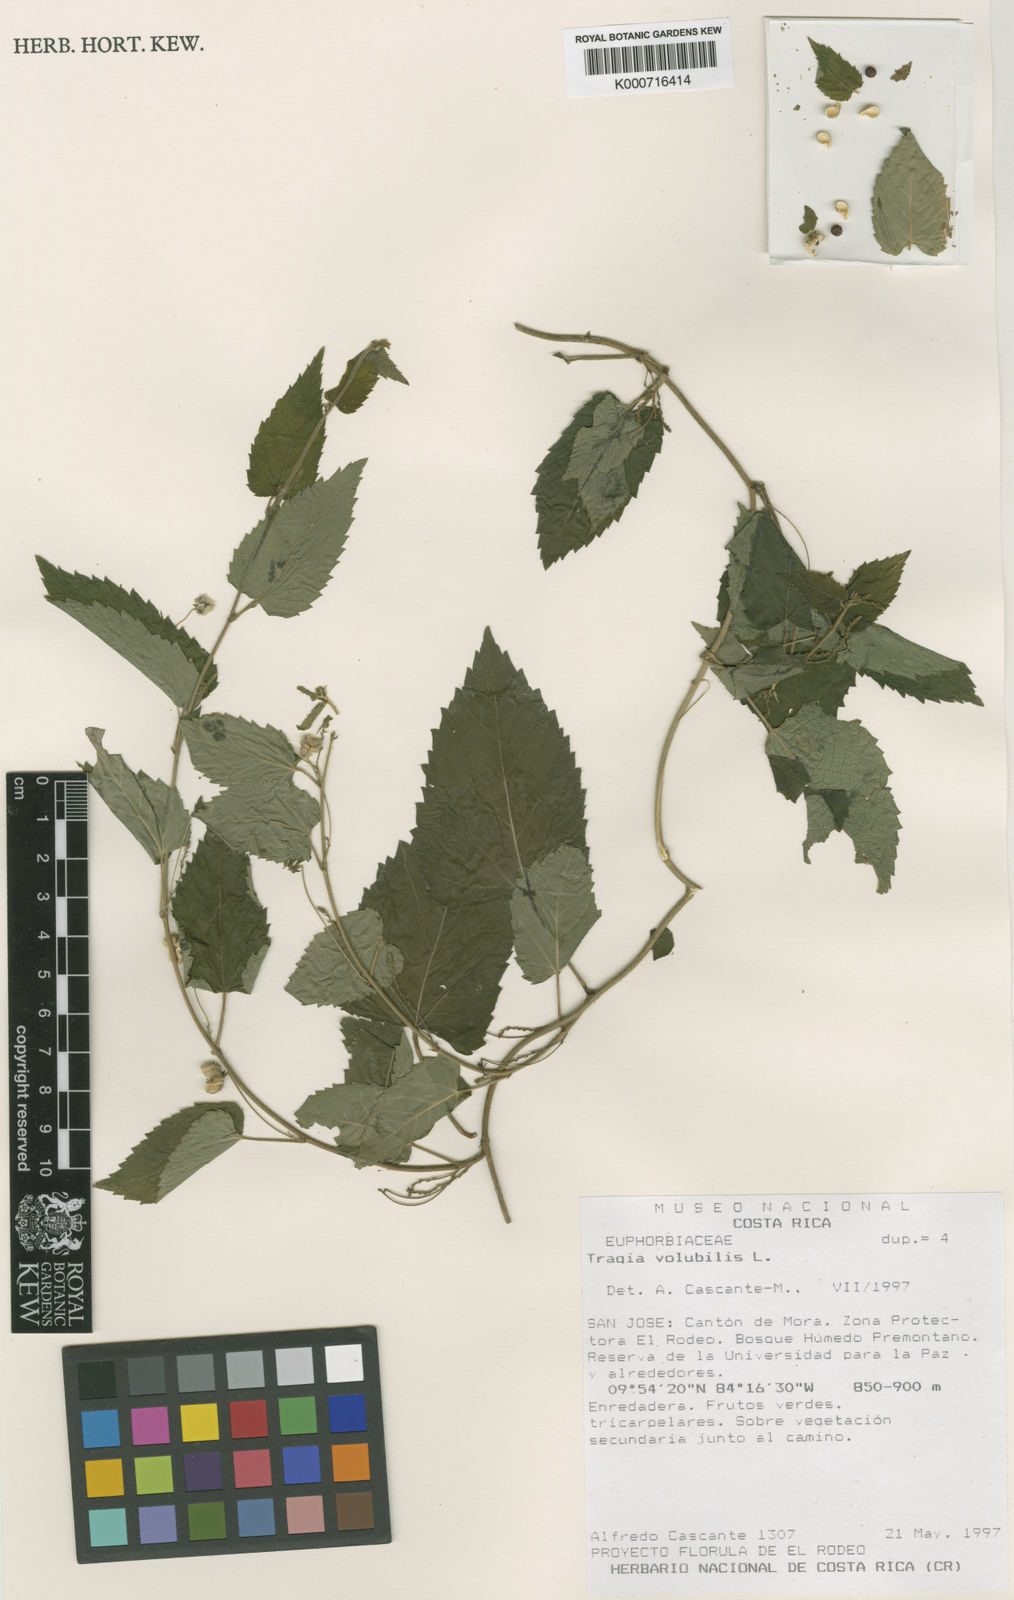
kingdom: Plantae
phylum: Tracheophyta
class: Magnoliopsida
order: Malpighiales
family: Euphorbiaceae
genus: Tragia
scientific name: Tragia volubilis
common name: Twining cow-itch
